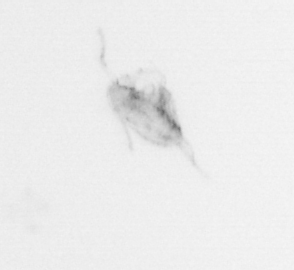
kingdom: Animalia
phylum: Arthropoda
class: Copepoda
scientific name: Copepoda
